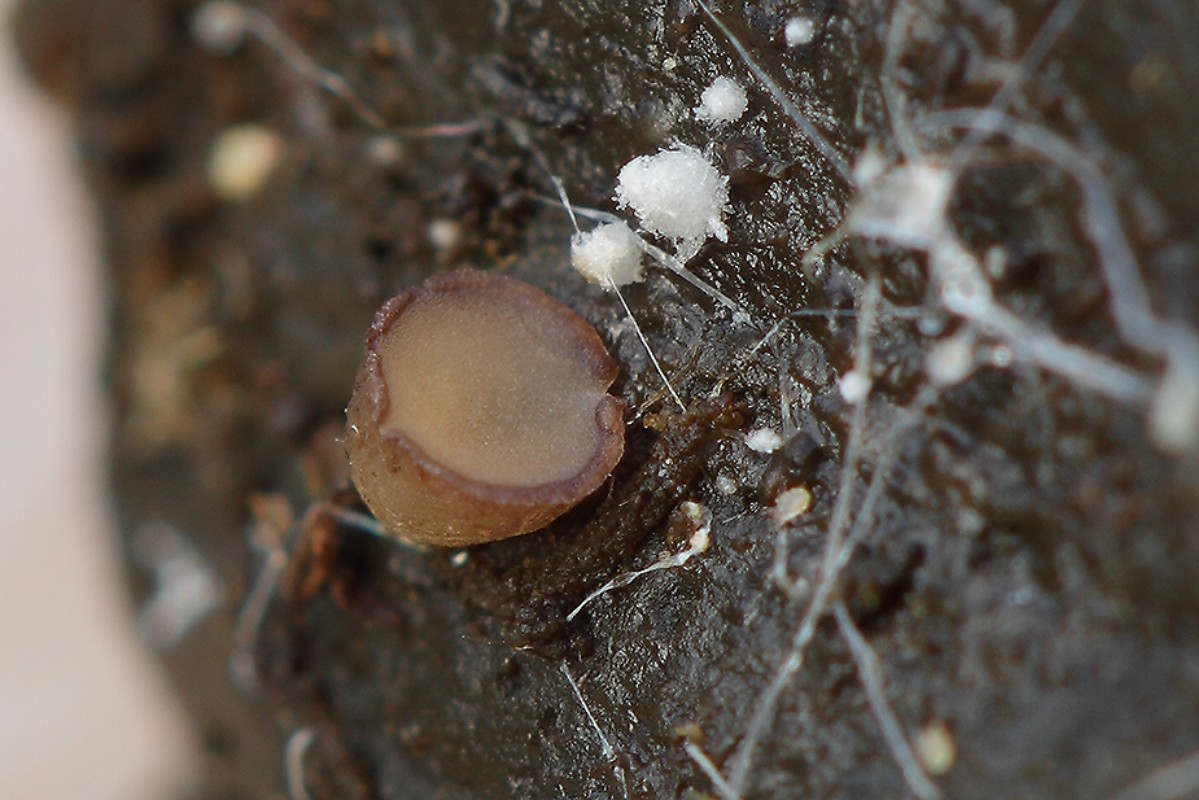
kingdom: Fungi
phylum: Ascomycota
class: Pezizomycetes
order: Pezizales
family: Pseudombrophilaceae
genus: Pseudombrophila
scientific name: Pseudombrophila cervaria
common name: hjortebrun randbæger
